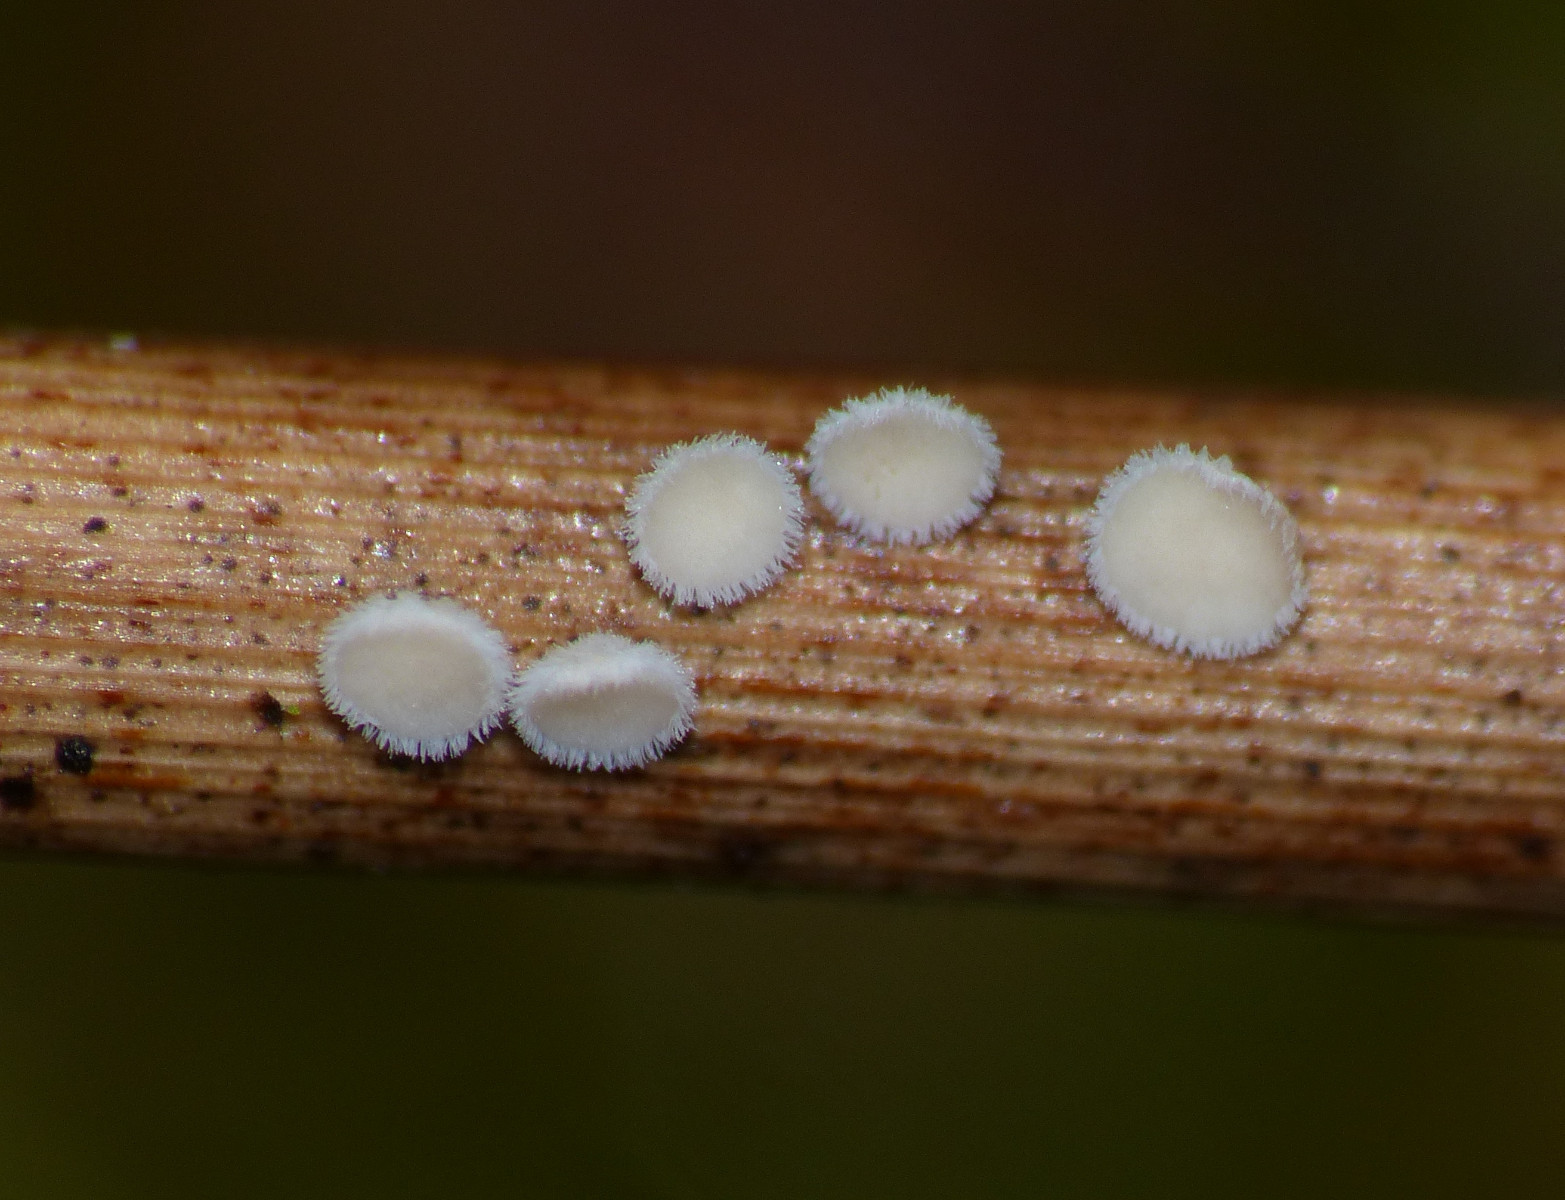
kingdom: Fungi
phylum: Ascomycota
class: Leotiomycetes
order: Helotiales
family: Lachnaceae
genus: Lachnum
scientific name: Lachnum apalum
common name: siv-frynseskive
